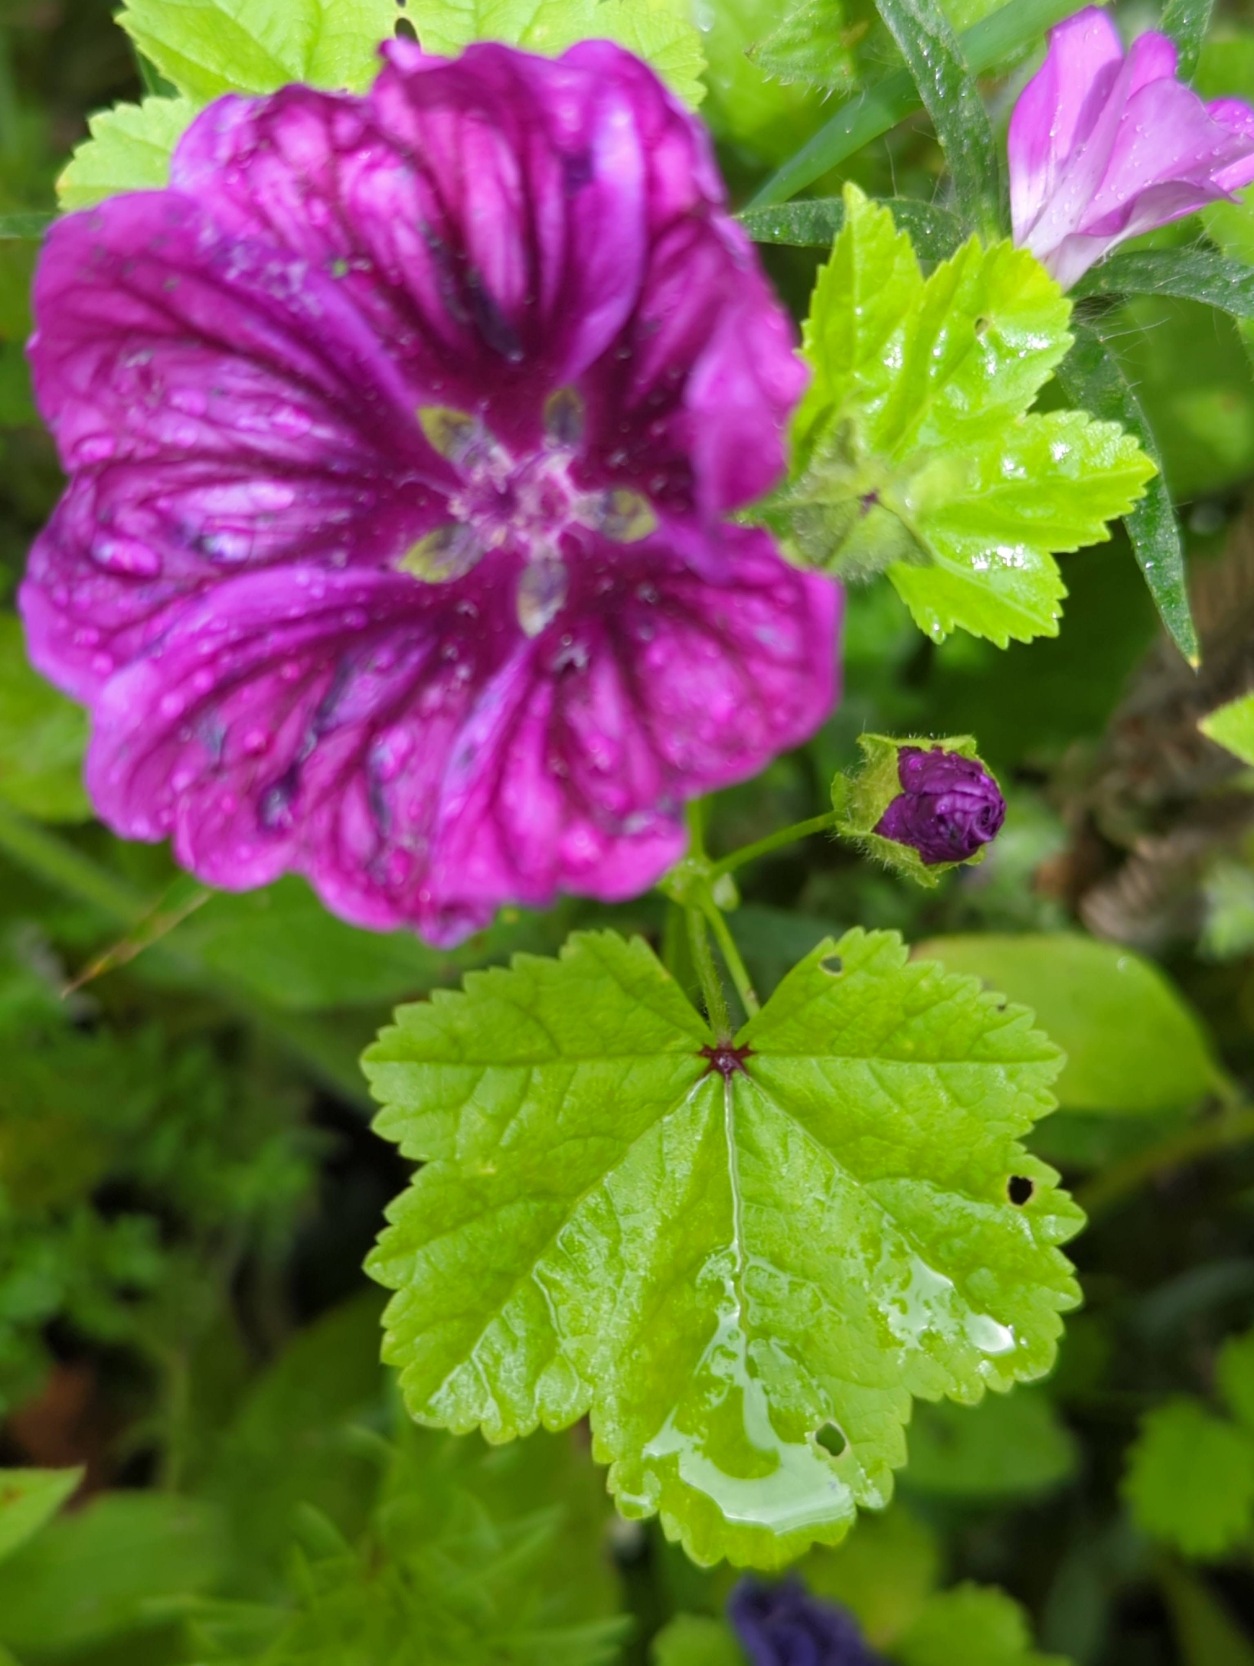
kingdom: Plantae
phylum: Tracheophyta
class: Magnoliopsida
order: Malvales
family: Malvaceae
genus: Malva
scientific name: Malva sylvestris
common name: Stor katost
